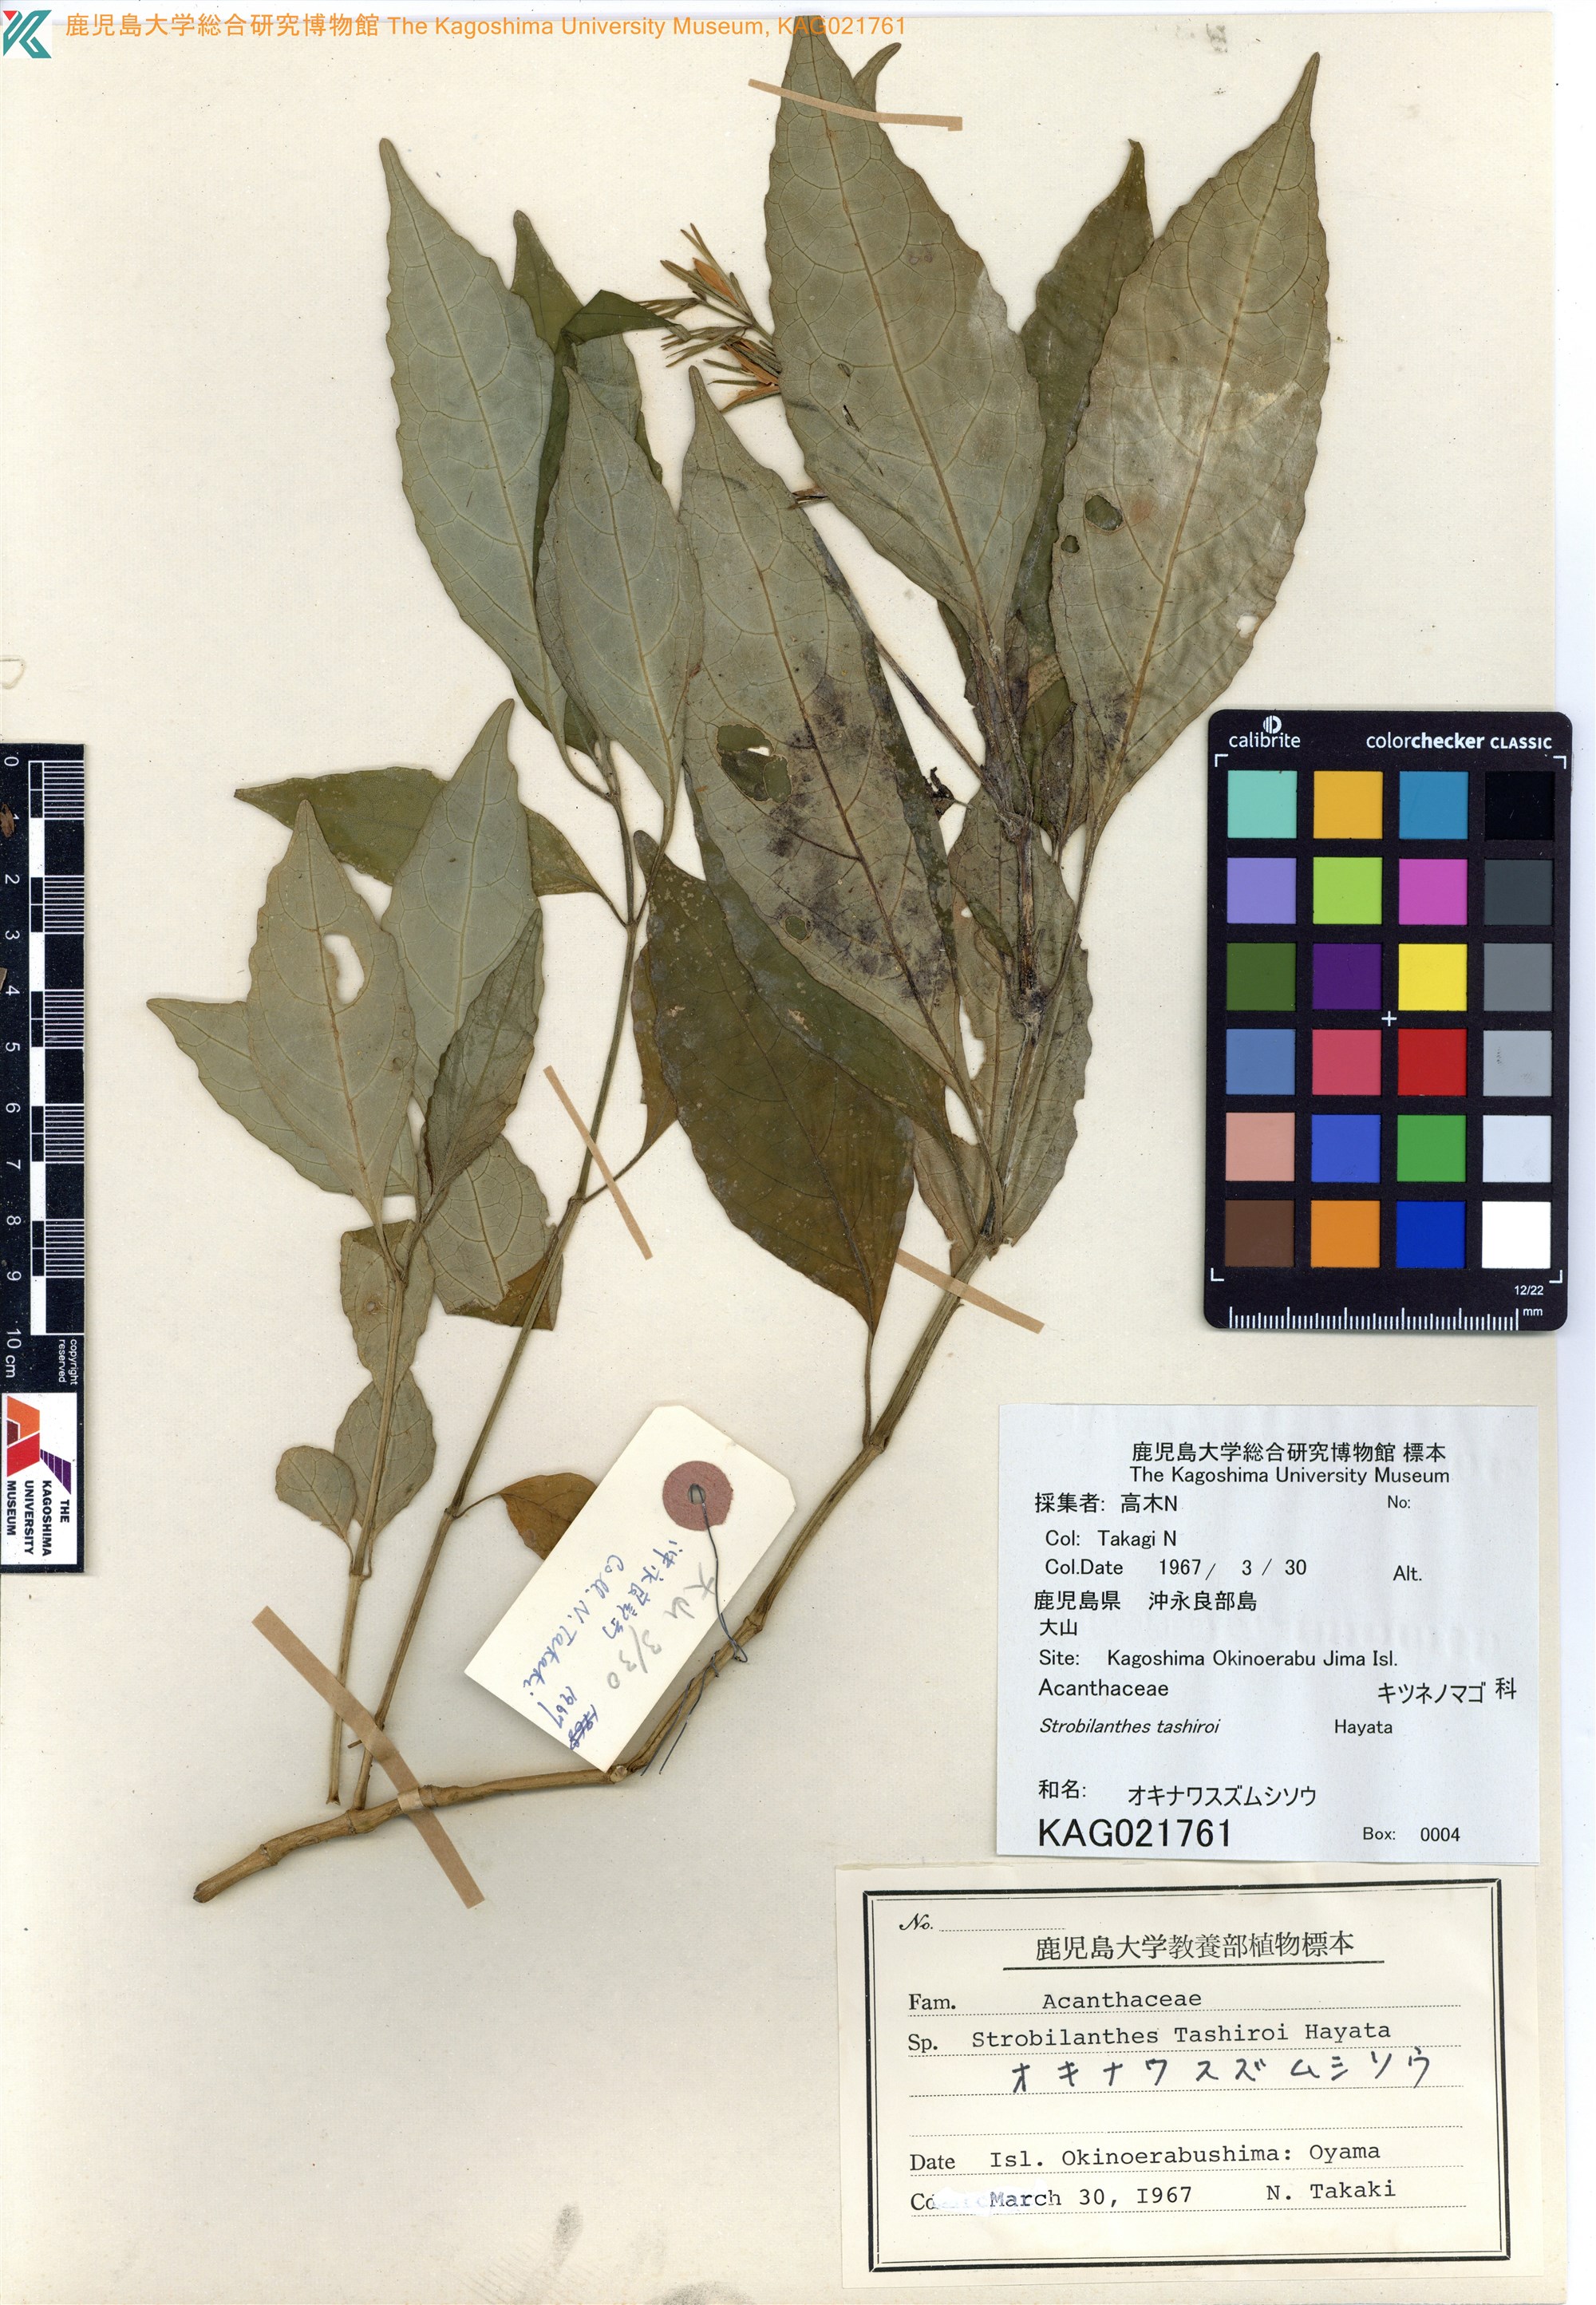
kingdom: Plantae
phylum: Tracheophyta
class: Magnoliopsida
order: Lamiales
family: Acanthaceae
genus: Strobilanthes
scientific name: Strobilanthes flexicaulis
